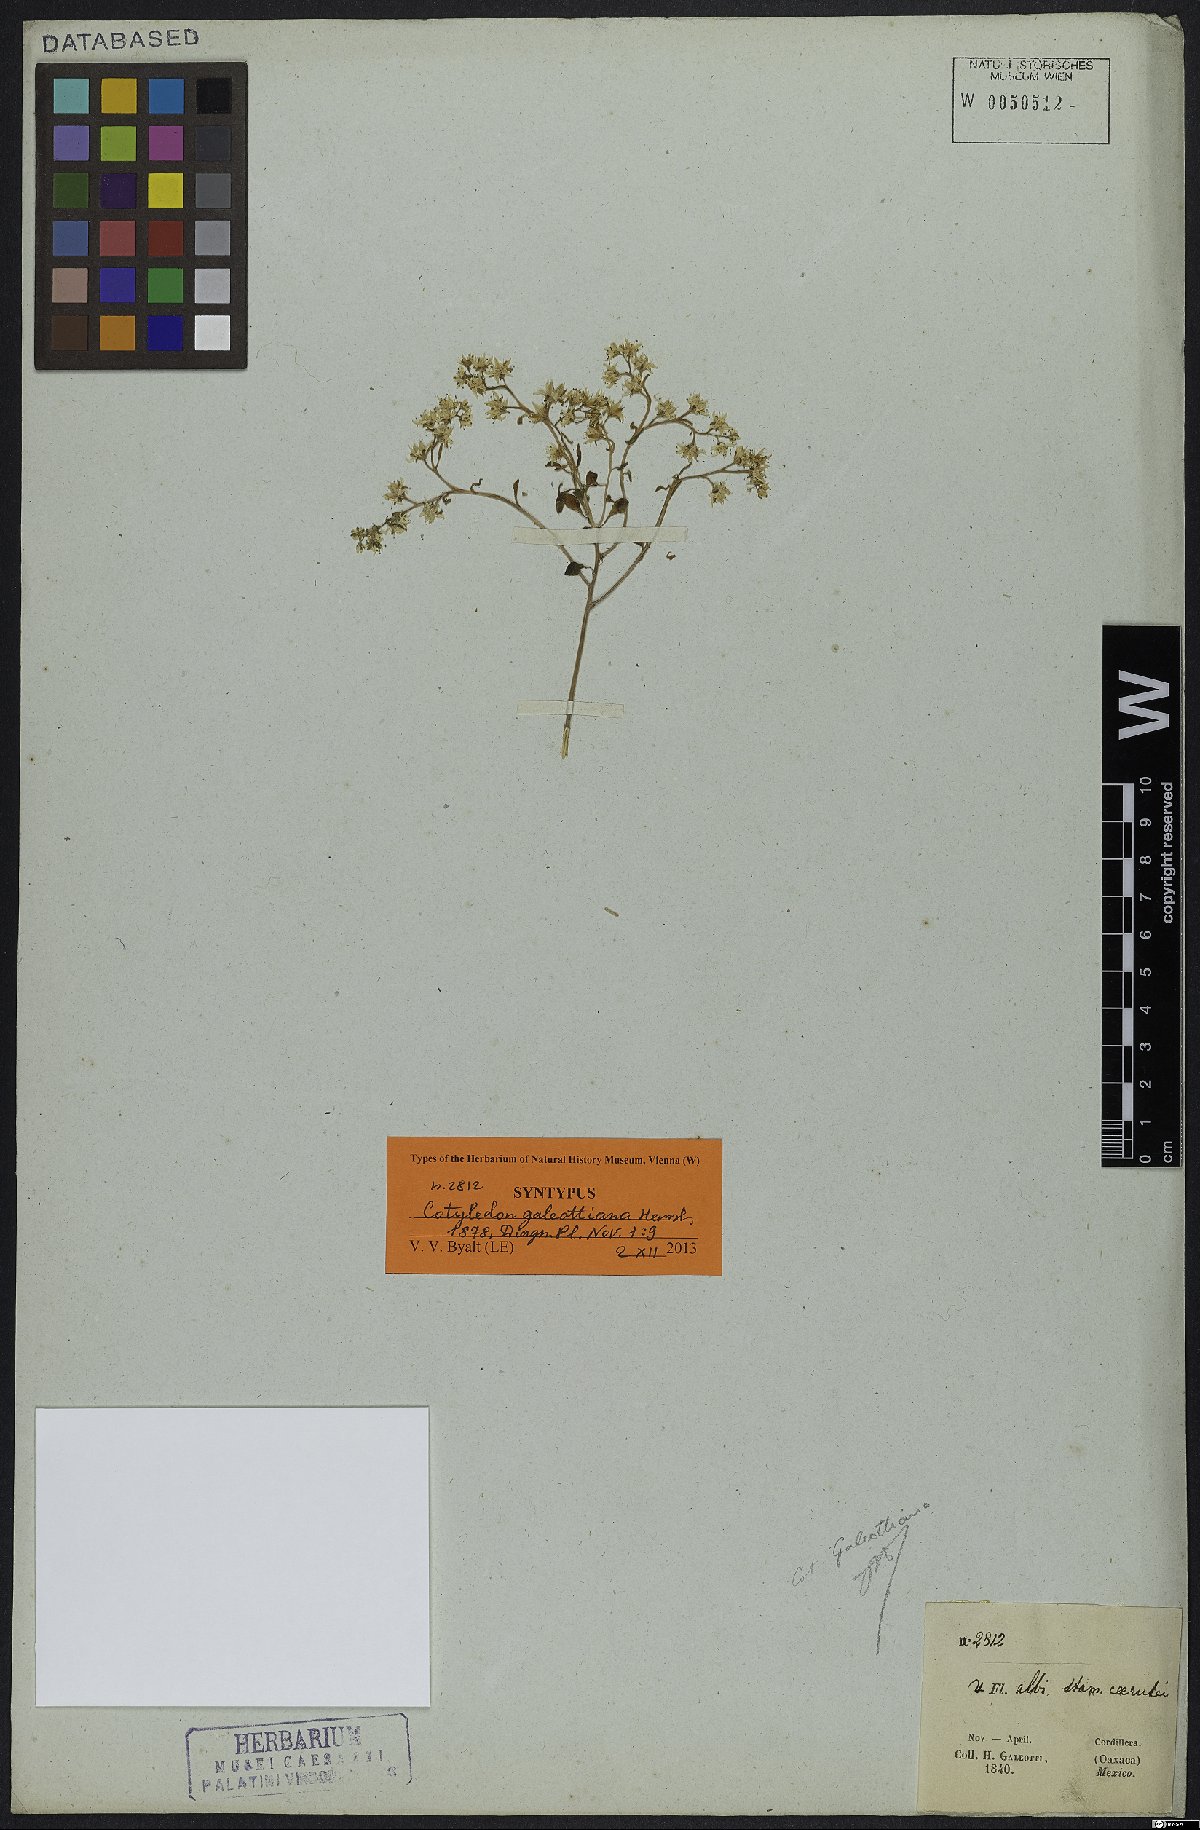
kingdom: Plantae
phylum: Tracheophyta
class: Magnoliopsida
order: Saxifragales
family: Crassulaceae
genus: Sedum
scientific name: Sedum batesii
